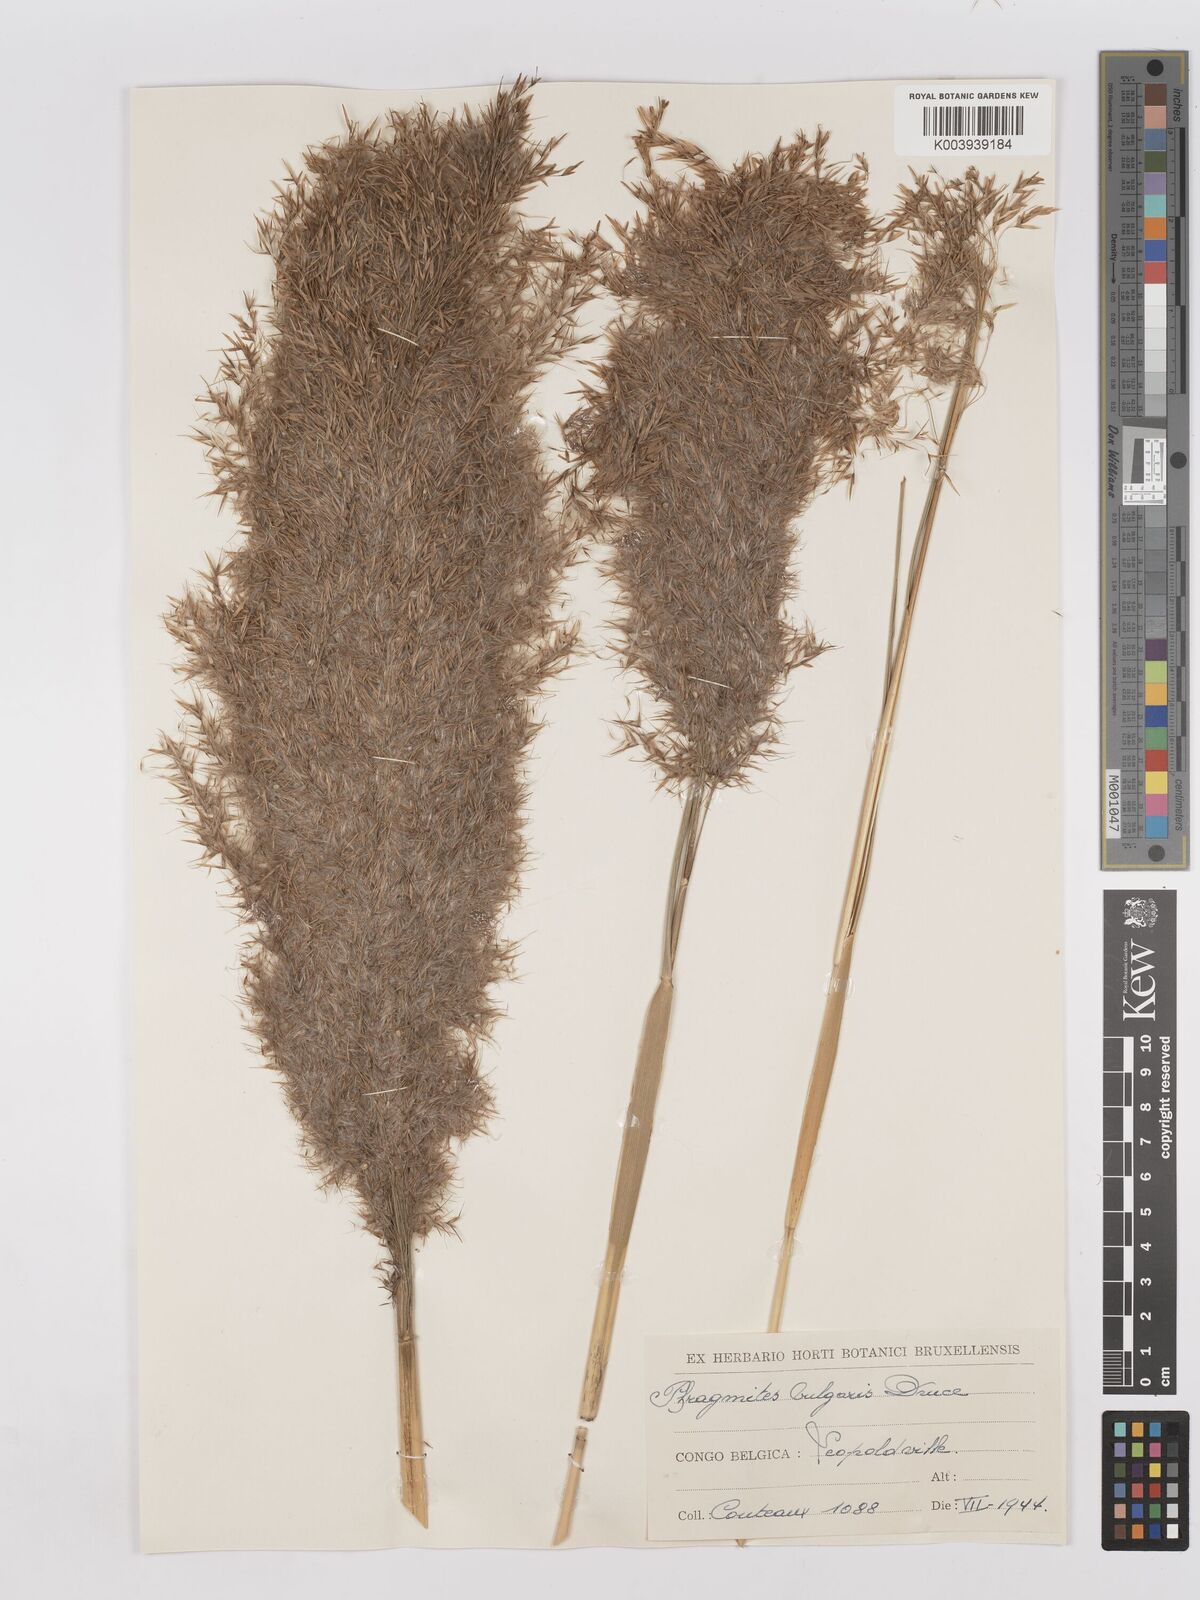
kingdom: Plantae
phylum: Tracheophyta
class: Liliopsida
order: Poales
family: Poaceae
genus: Phragmites
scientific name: Phragmites mauritianus
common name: Reed grass
